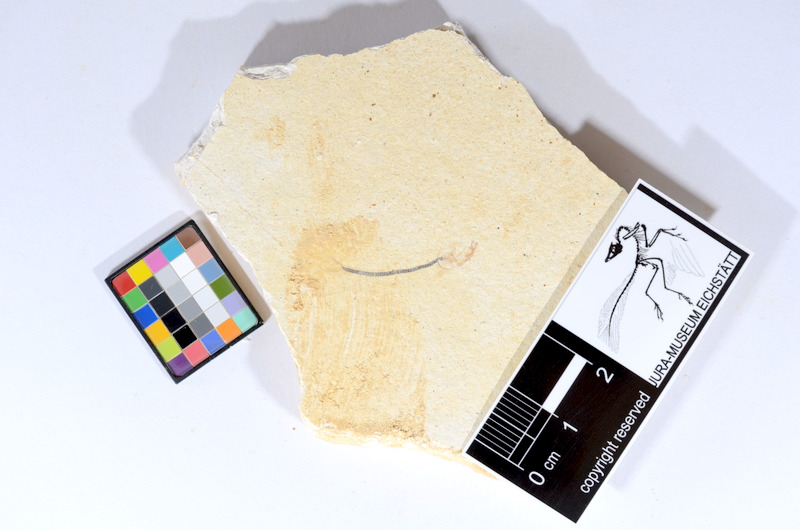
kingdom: Animalia
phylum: Chordata
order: Salmoniformes
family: Orthogonikleithridae
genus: Orthogonikleithrus
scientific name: Orthogonikleithrus hoelli
